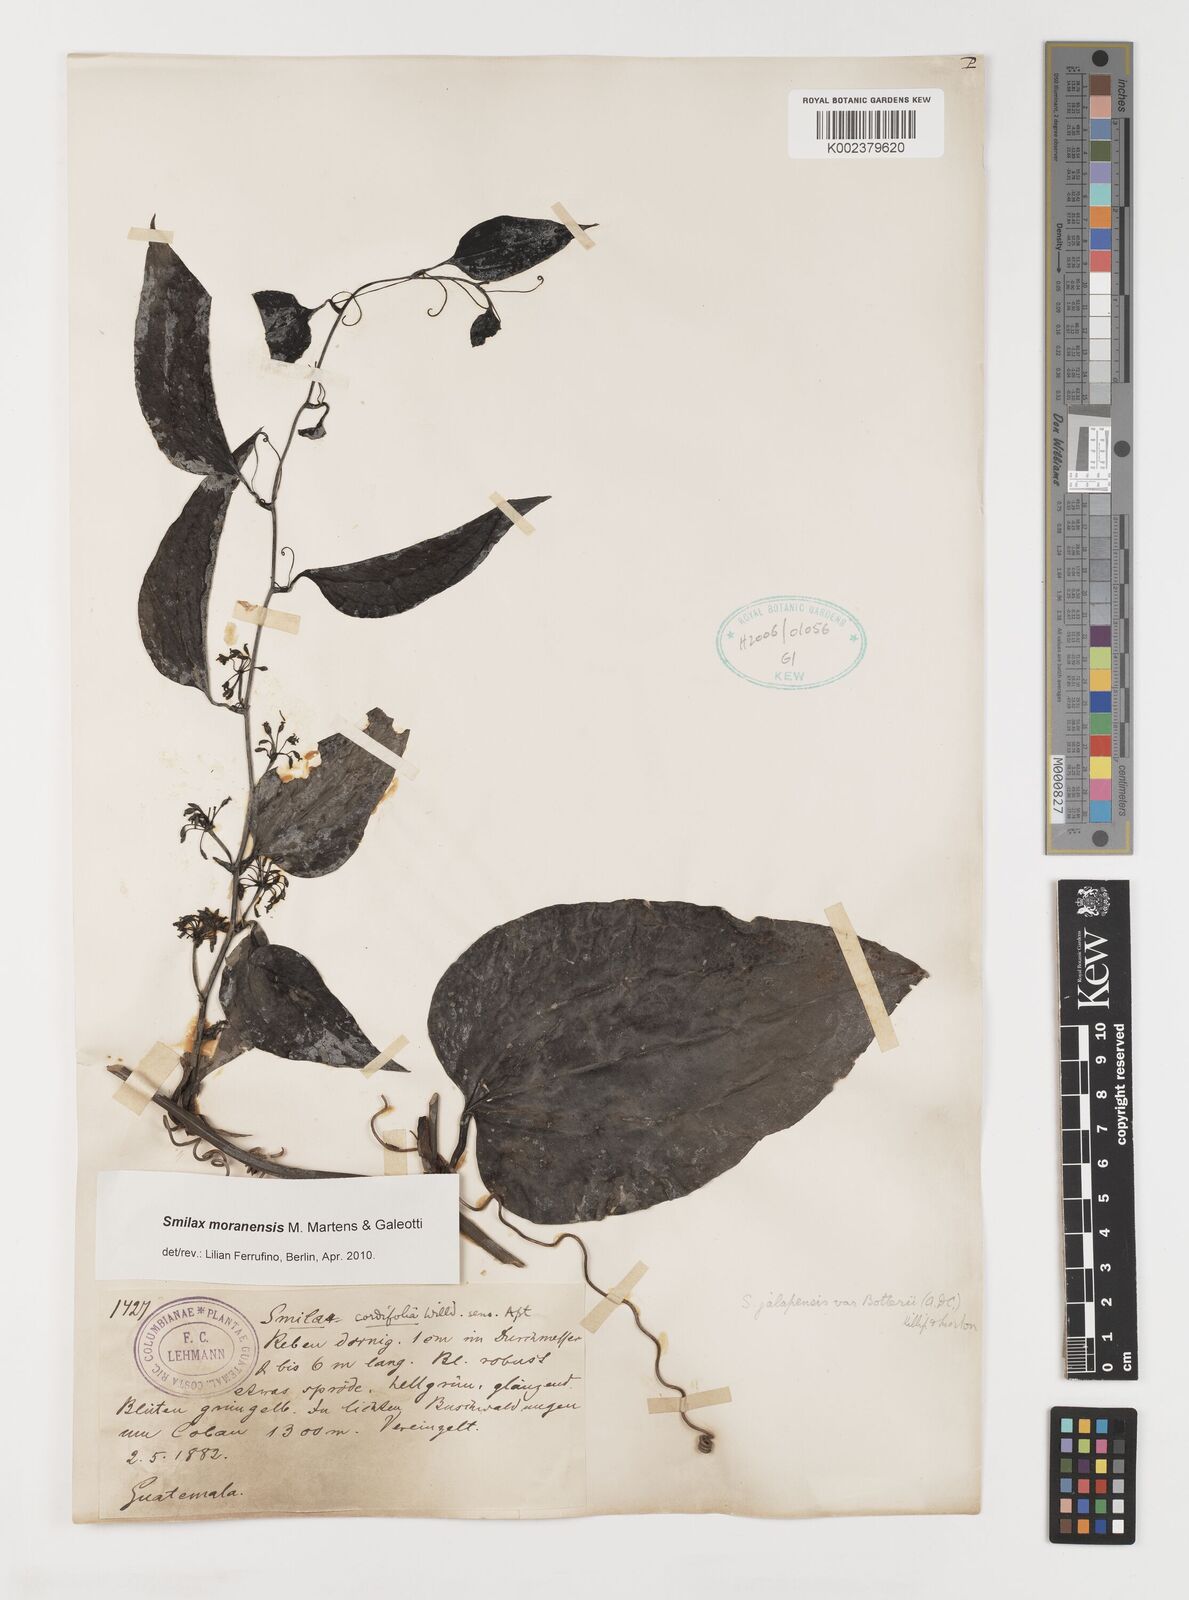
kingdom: Plantae
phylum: Tracheophyta
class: Liliopsida
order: Liliales
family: Smilacaceae
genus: Smilax
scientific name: Smilax moranensis
